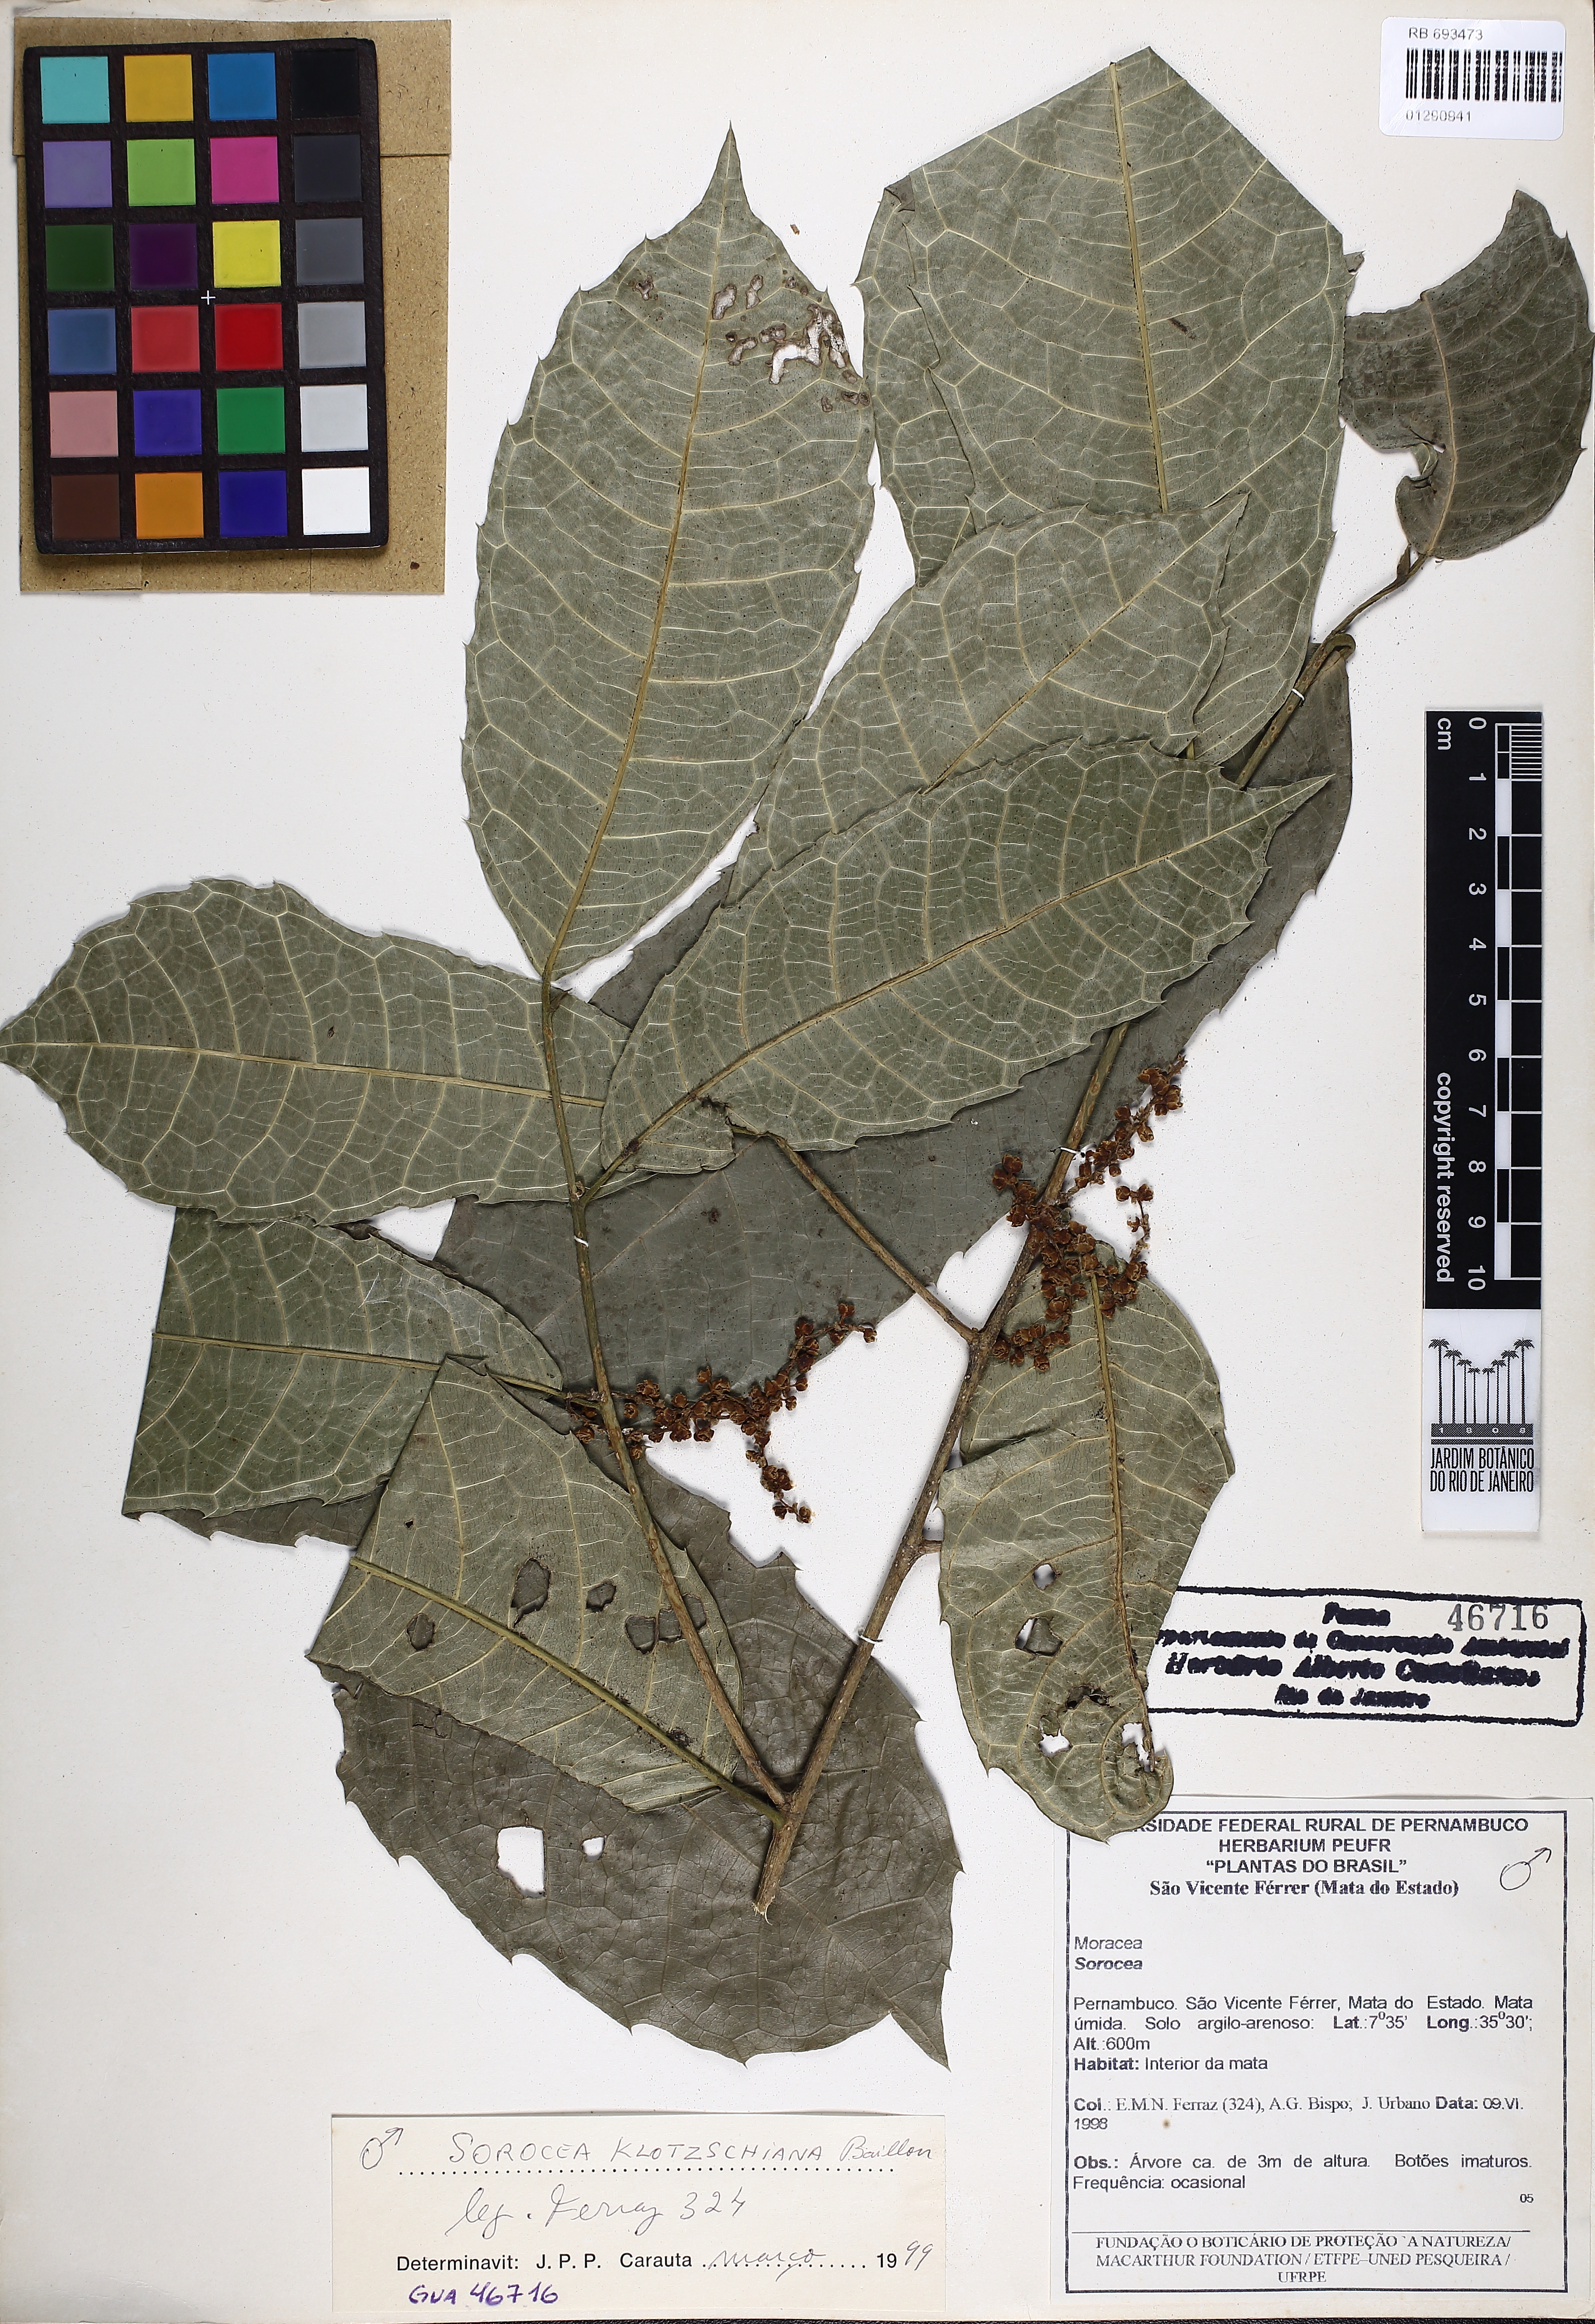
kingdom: Plantae
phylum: Tracheophyta
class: Magnoliopsida
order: Rosales
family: Moraceae
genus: Sorocea
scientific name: Sorocea guilleminiana
